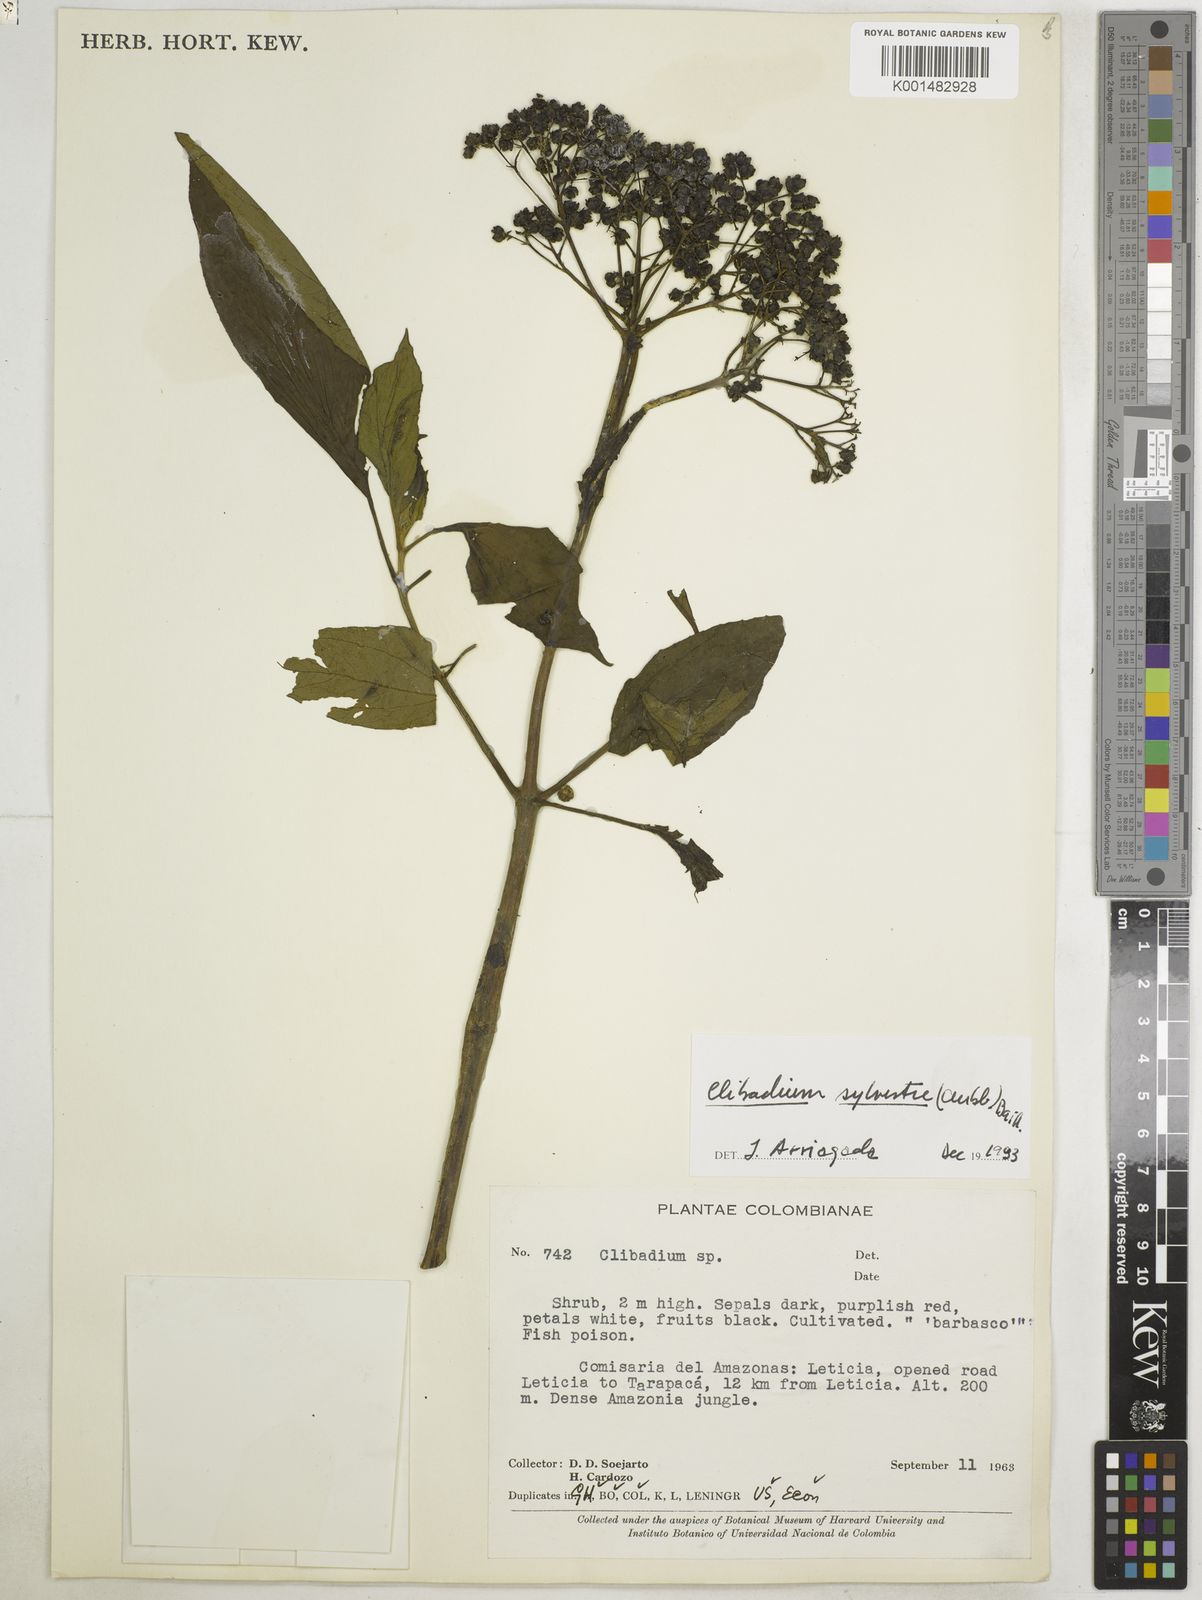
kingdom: Plantae
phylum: Tracheophyta
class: Magnoliopsida
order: Asterales
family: Asteraceae
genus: Clibadium
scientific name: Clibadium sylvestre
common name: Barbasco
